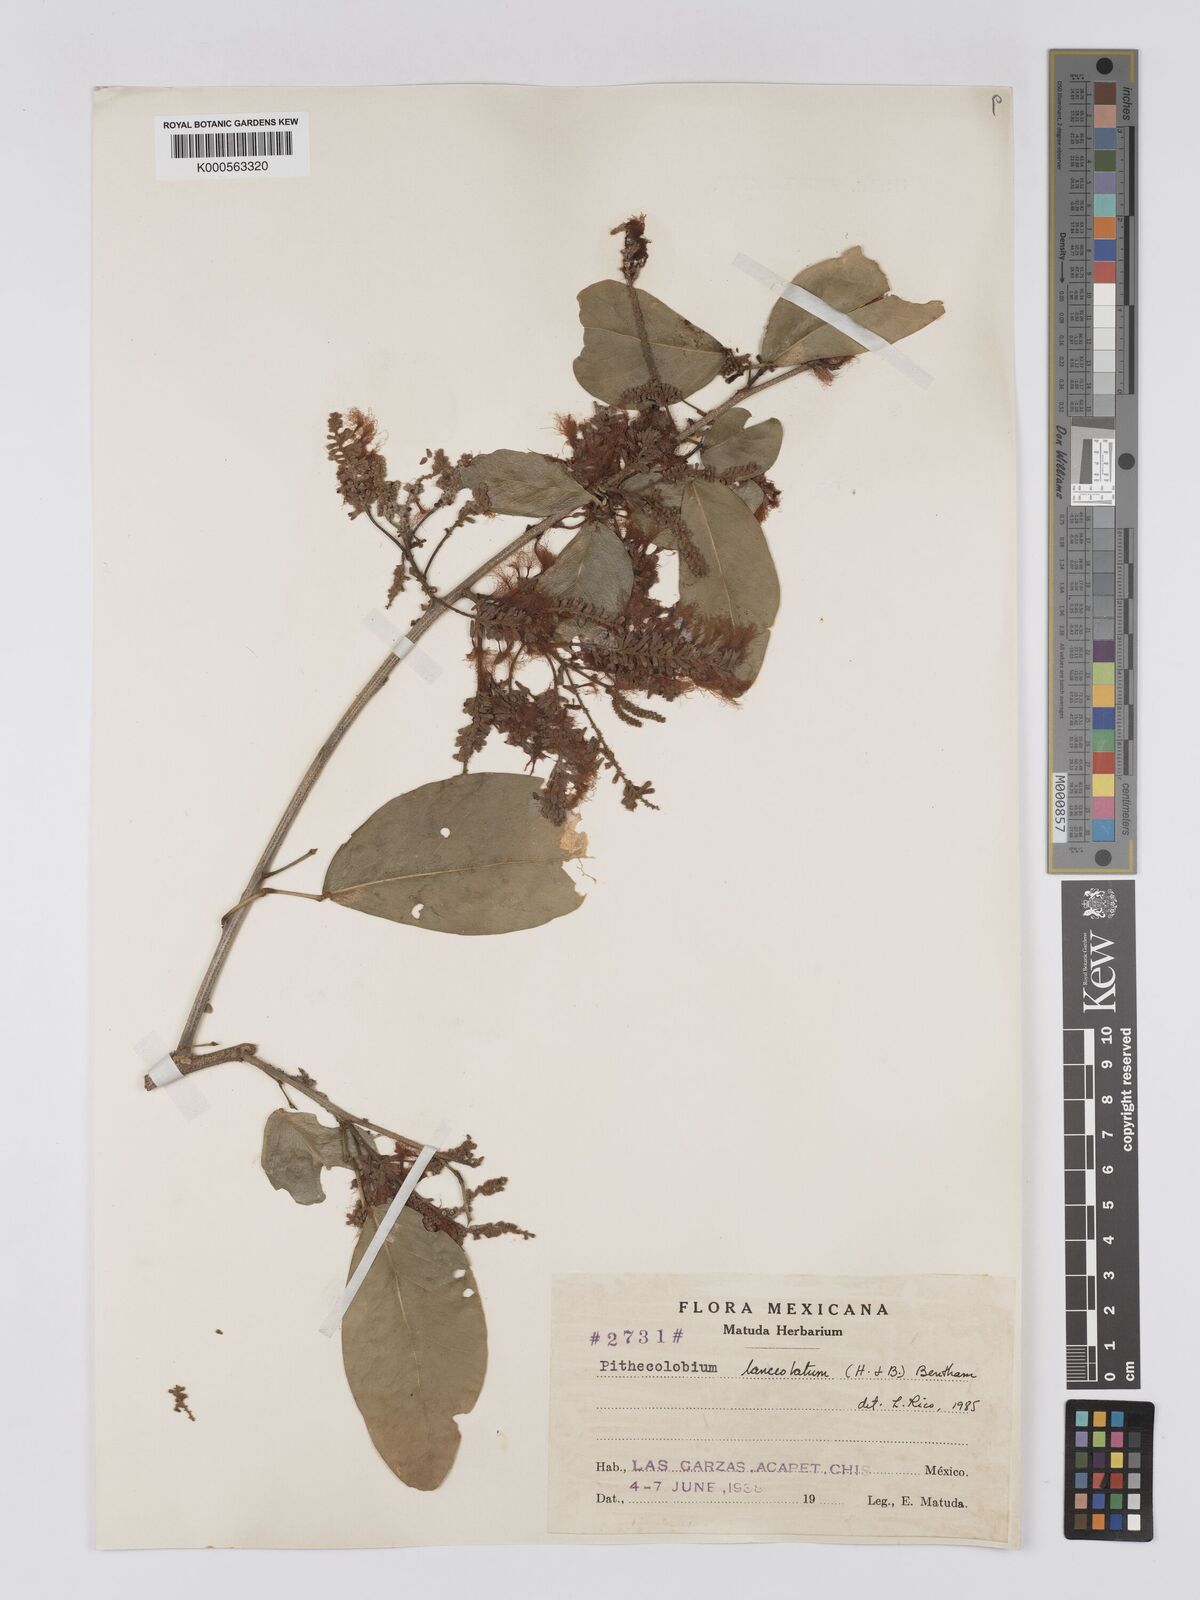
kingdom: Plantae
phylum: Tracheophyta
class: Magnoliopsida
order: Fabales
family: Fabaceae
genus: Pithecellobium
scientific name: Pithecellobium lanceolatum
